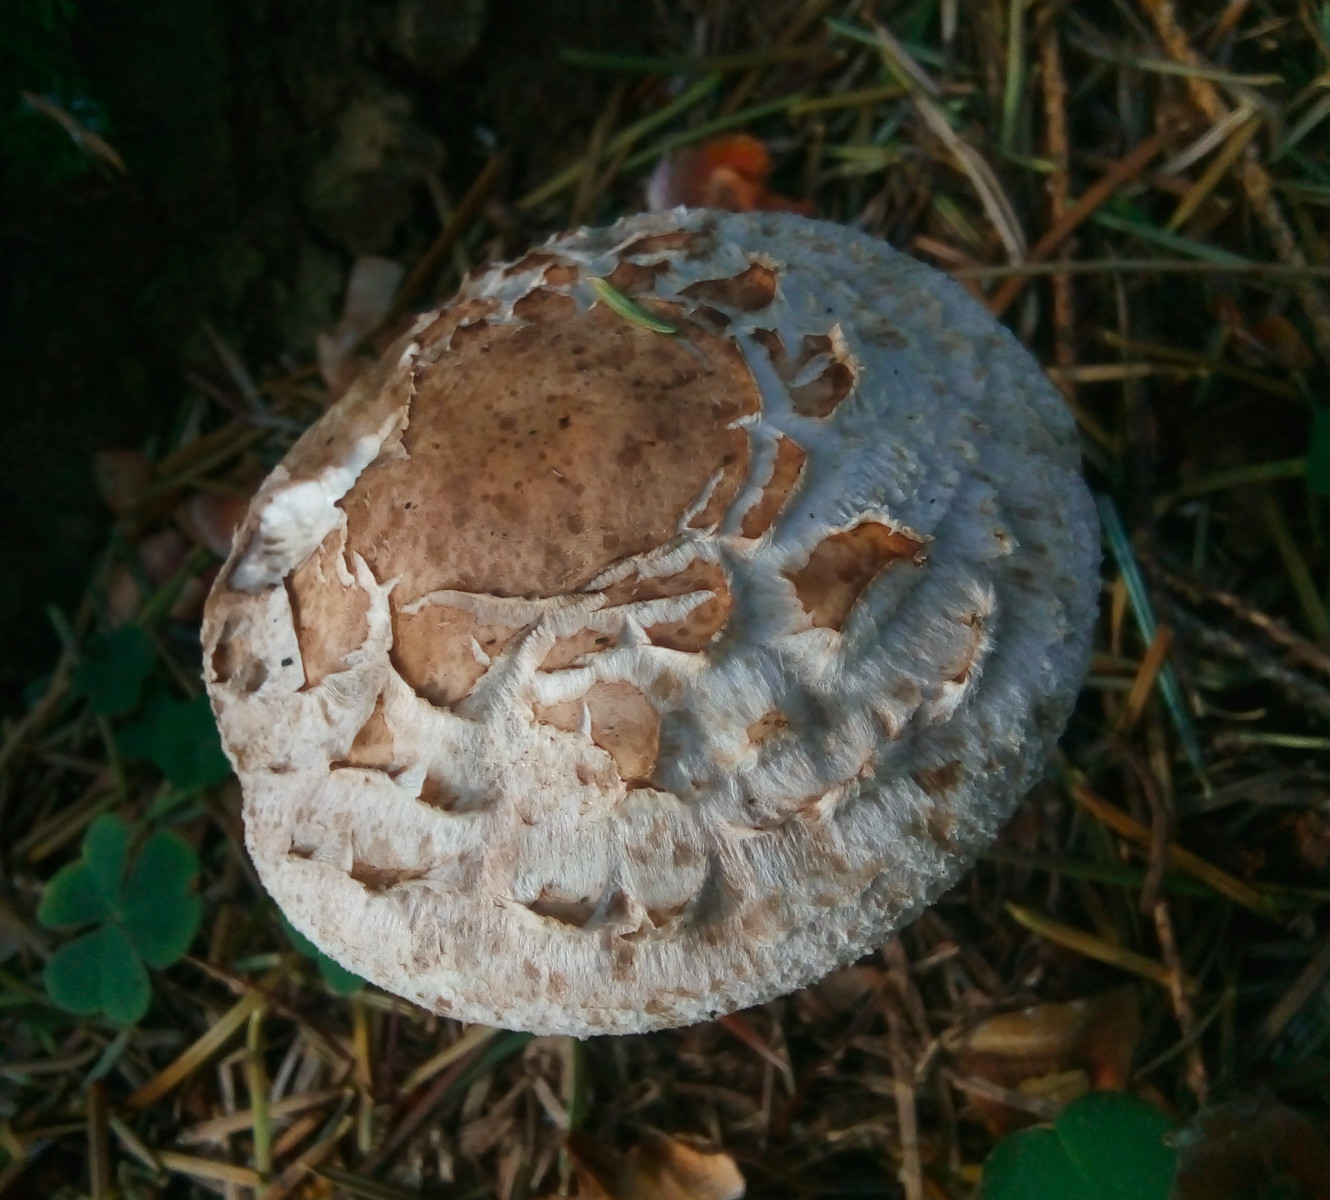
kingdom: Fungi
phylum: Basidiomycota
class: Agaricomycetes
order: Agaricales
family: Agaricaceae
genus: Chlorophyllum
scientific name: Chlorophyllum rhacodes
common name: ægte rabarberhat
